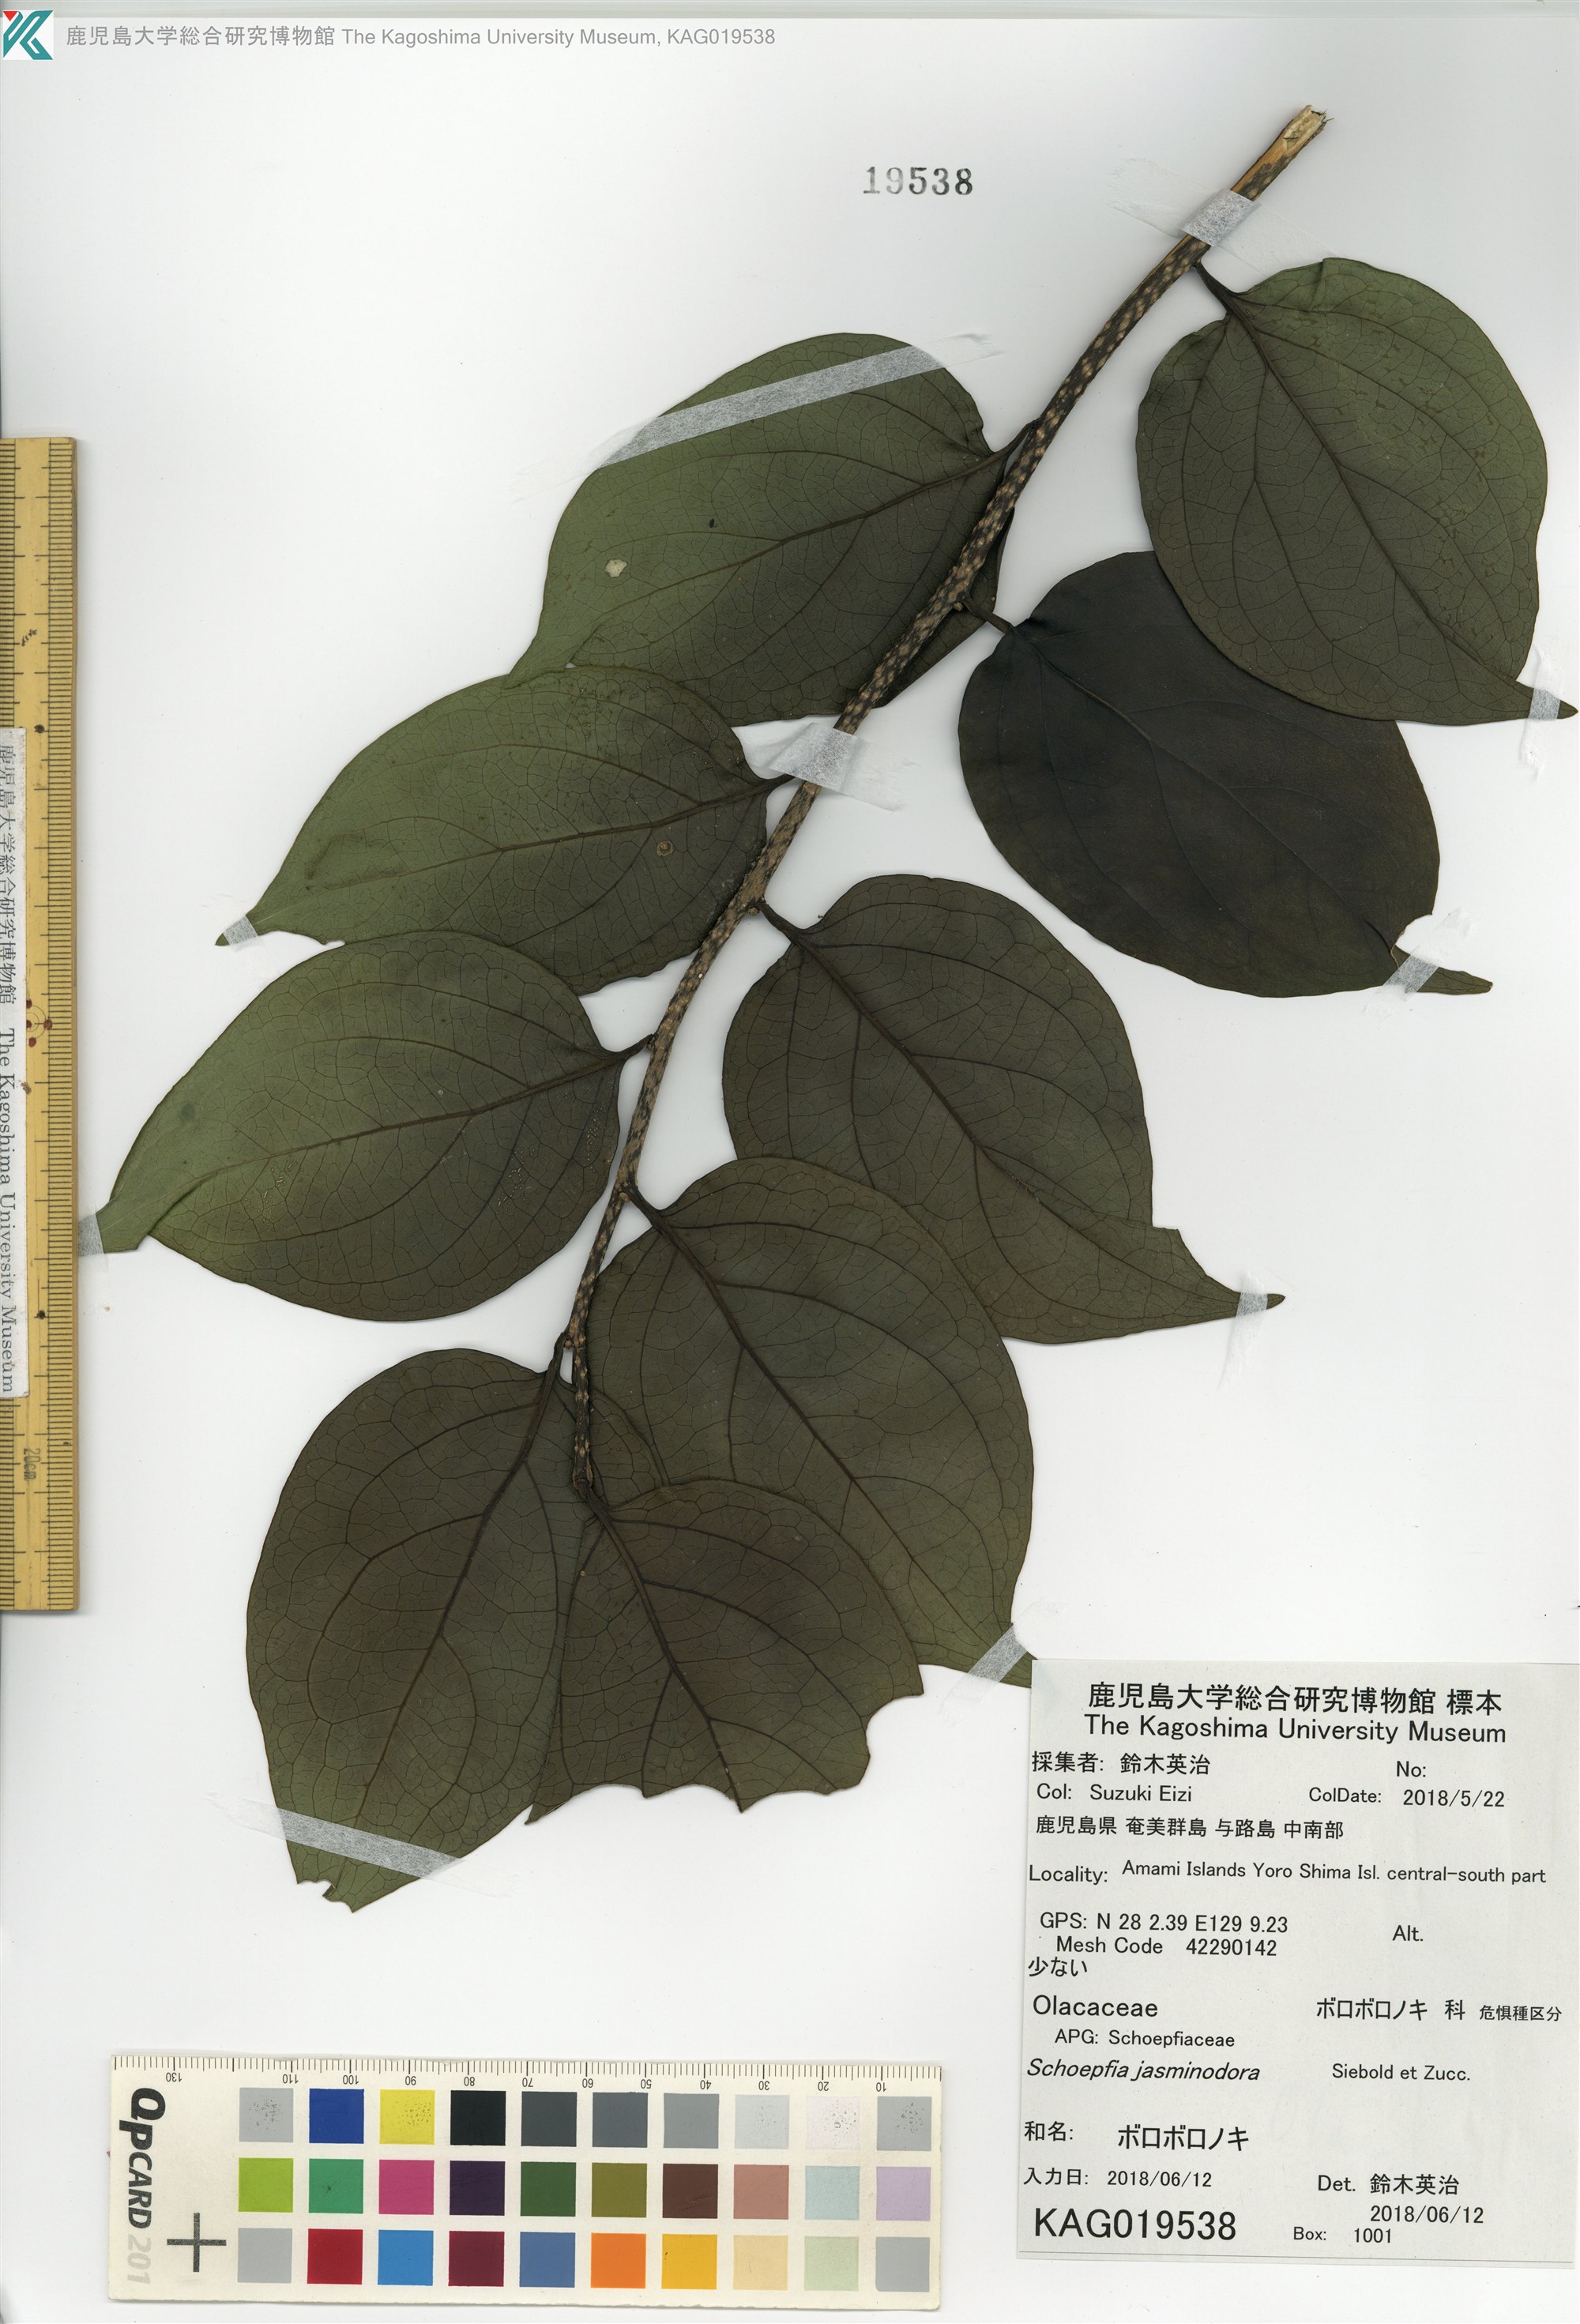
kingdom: Plantae
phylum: Tracheophyta
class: Magnoliopsida
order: Santalales
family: Schoepfiaceae
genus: Schoepfia
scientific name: Schoepfia jasminodora
